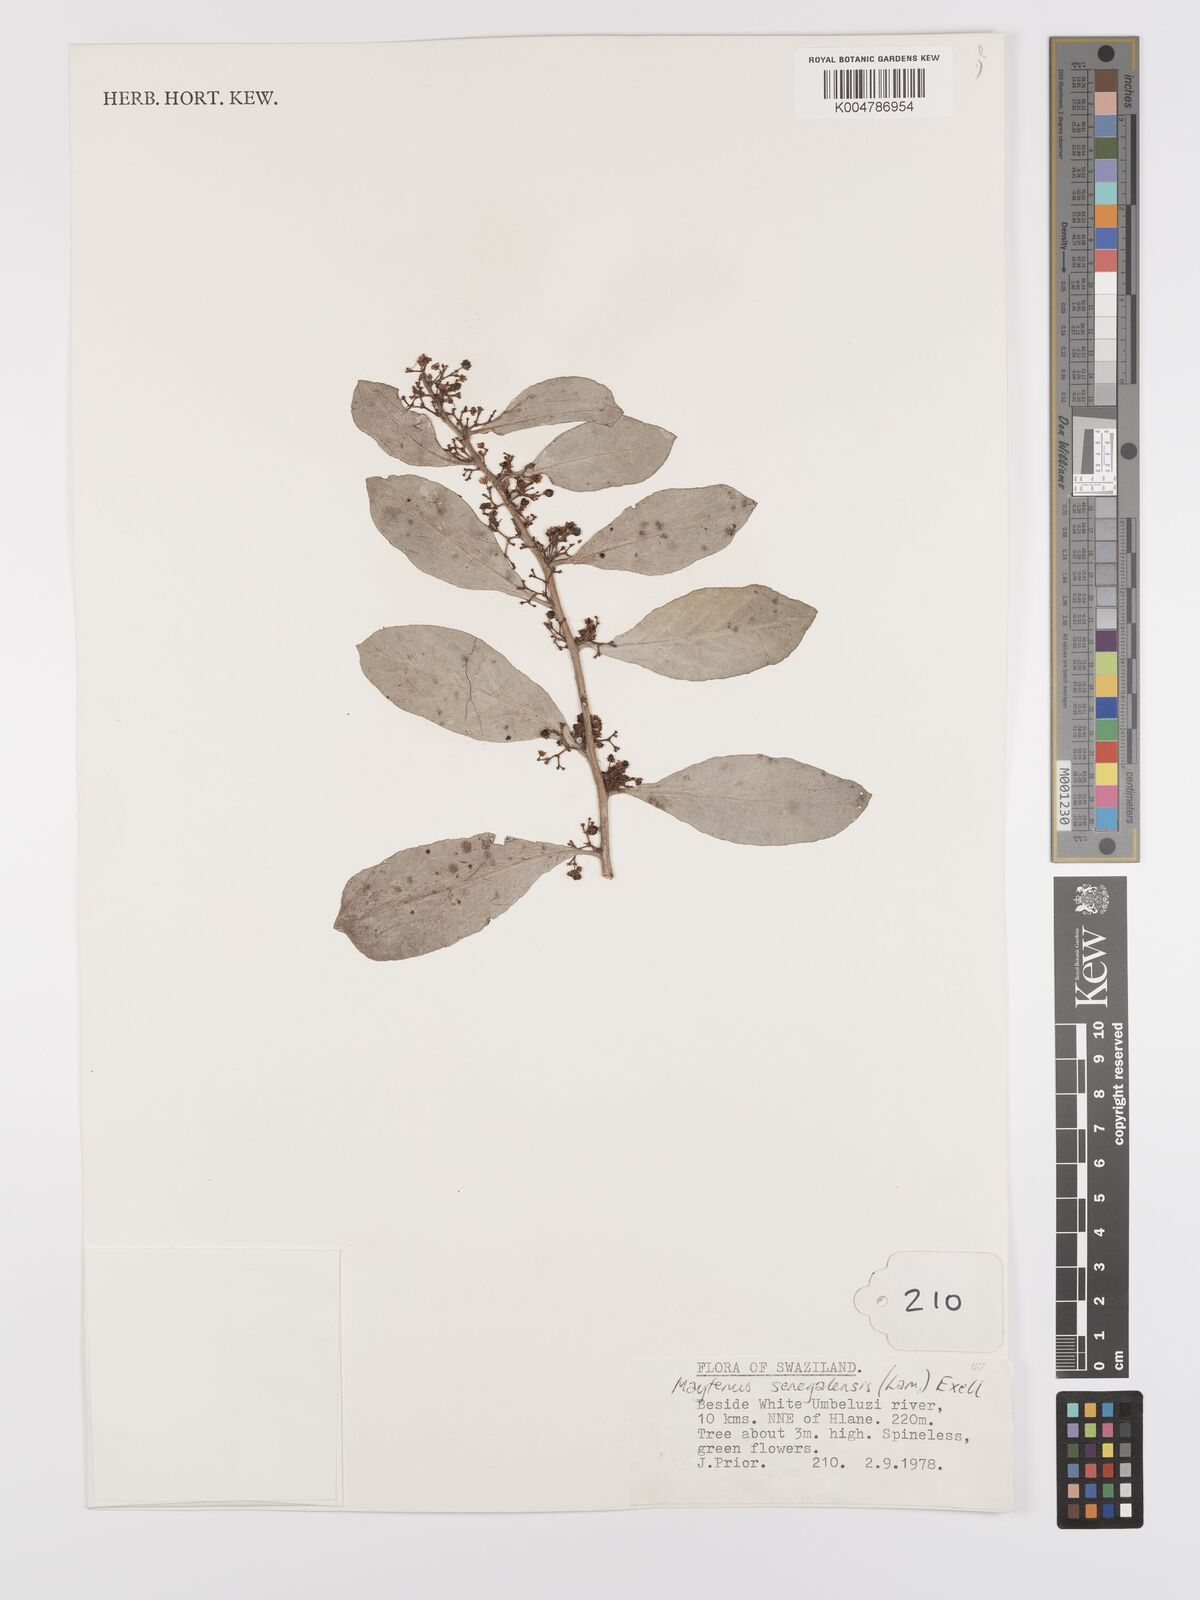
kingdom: Plantae
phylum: Tracheophyta
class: Magnoliopsida
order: Celastrales
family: Celastraceae
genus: Gymnosporia
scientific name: Gymnosporia senegalensis
